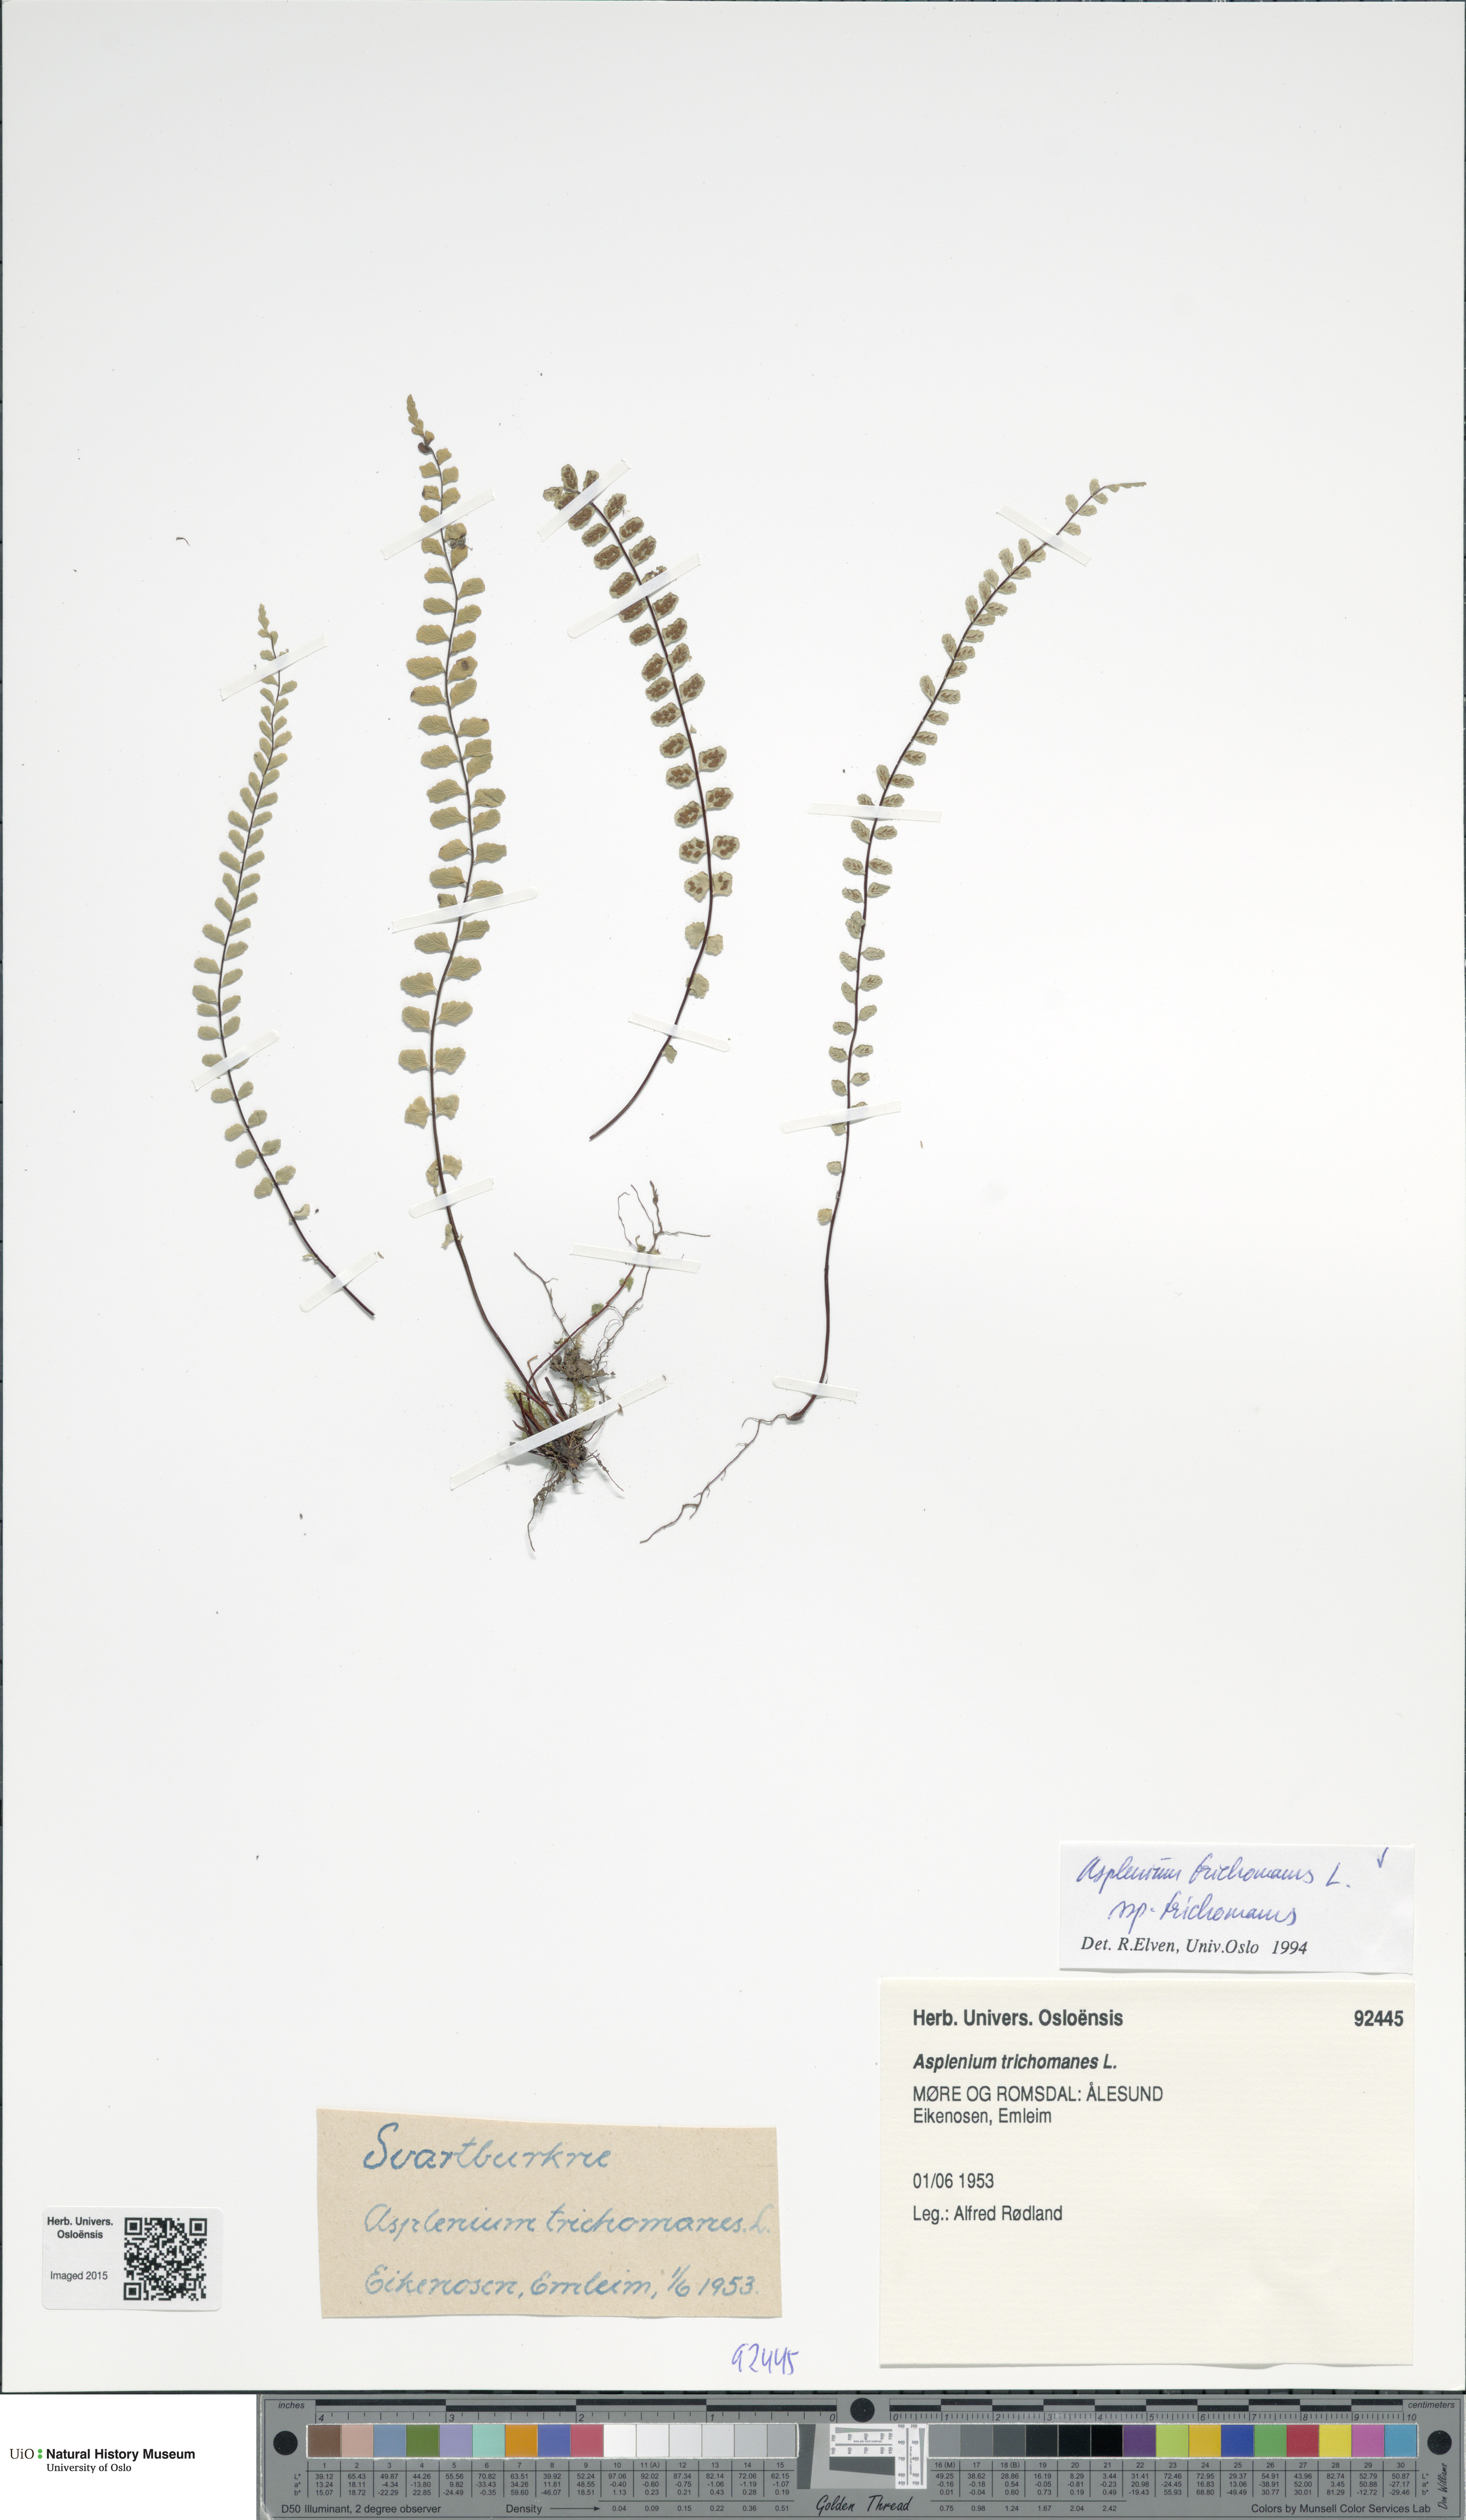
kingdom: Plantae
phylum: Tracheophyta
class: Polypodiopsida
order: Polypodiales
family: Aspleniaceae
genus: Asplenium
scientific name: Asplenium trichomanes
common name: Maidenhair spleenwort
